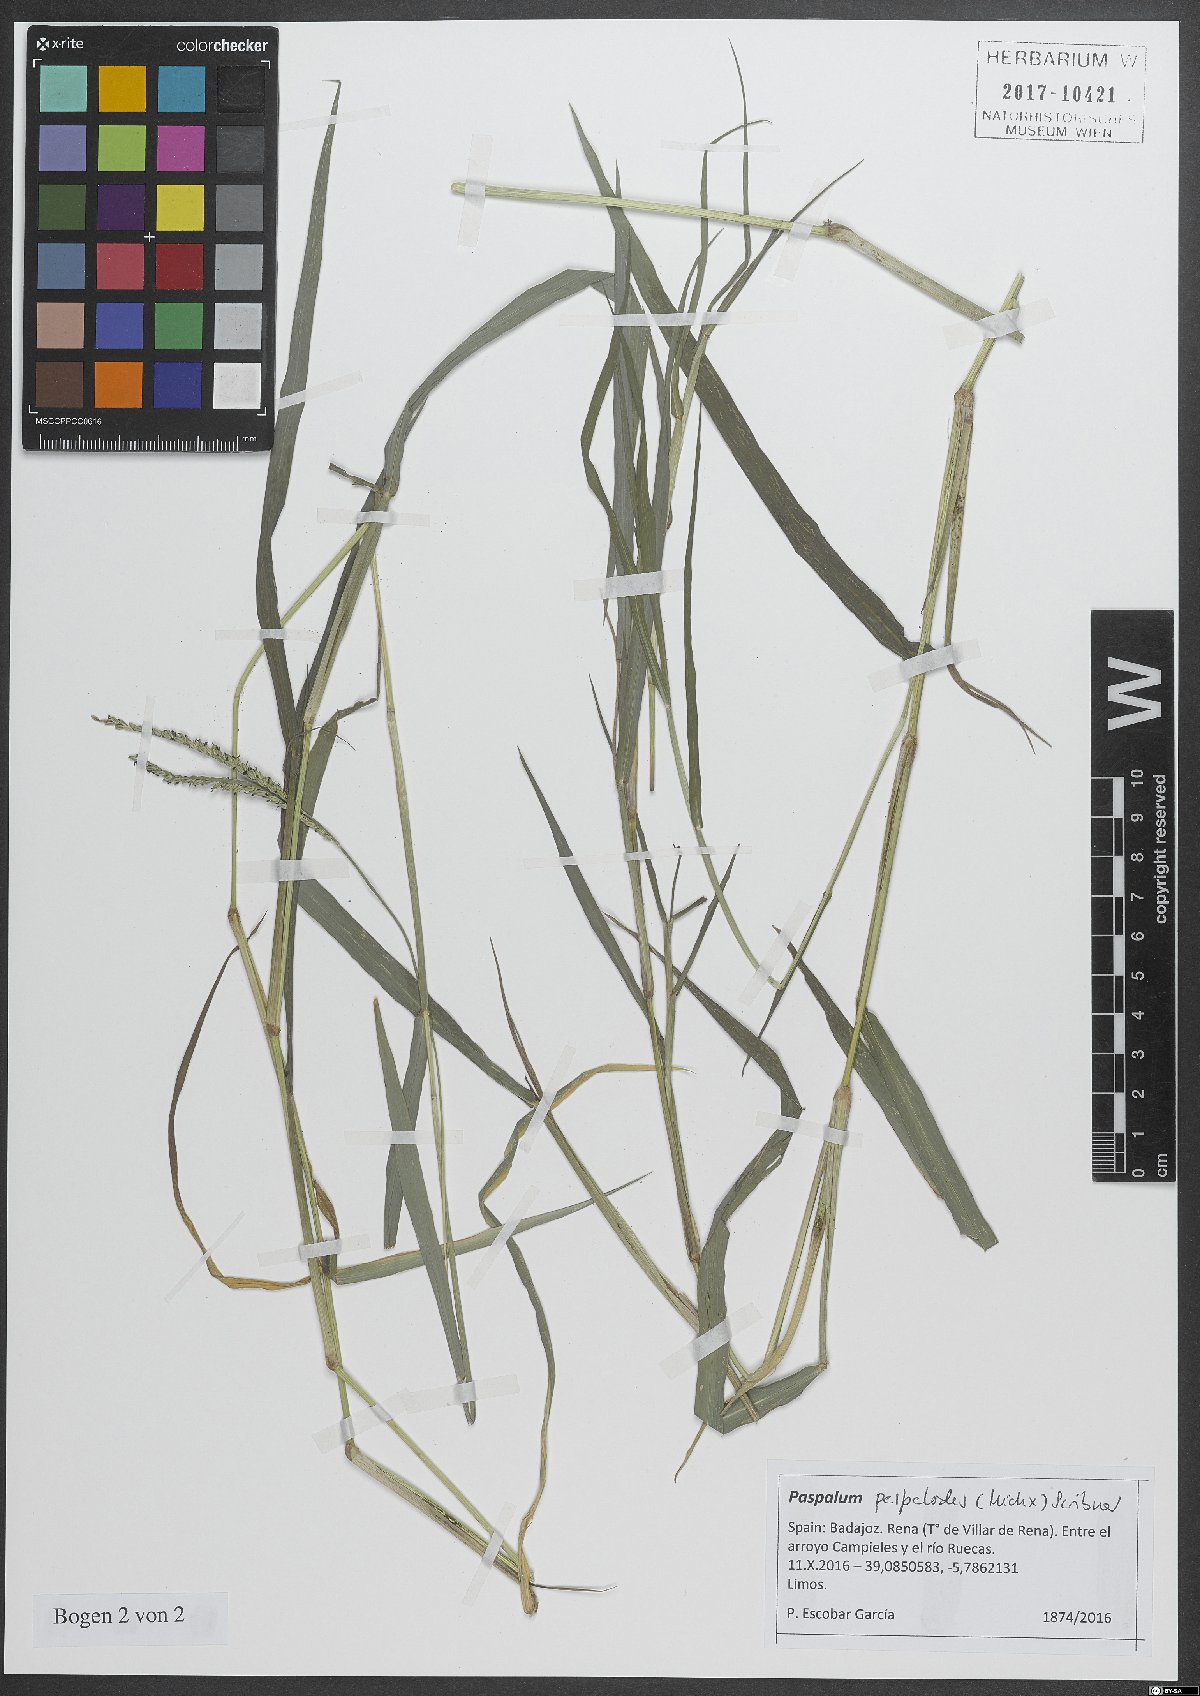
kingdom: Plantae
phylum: Tracheophyta
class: Liliopsida
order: Poales
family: Poaceae
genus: Paspalum
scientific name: Paspalum distichum
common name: Knotgrass
